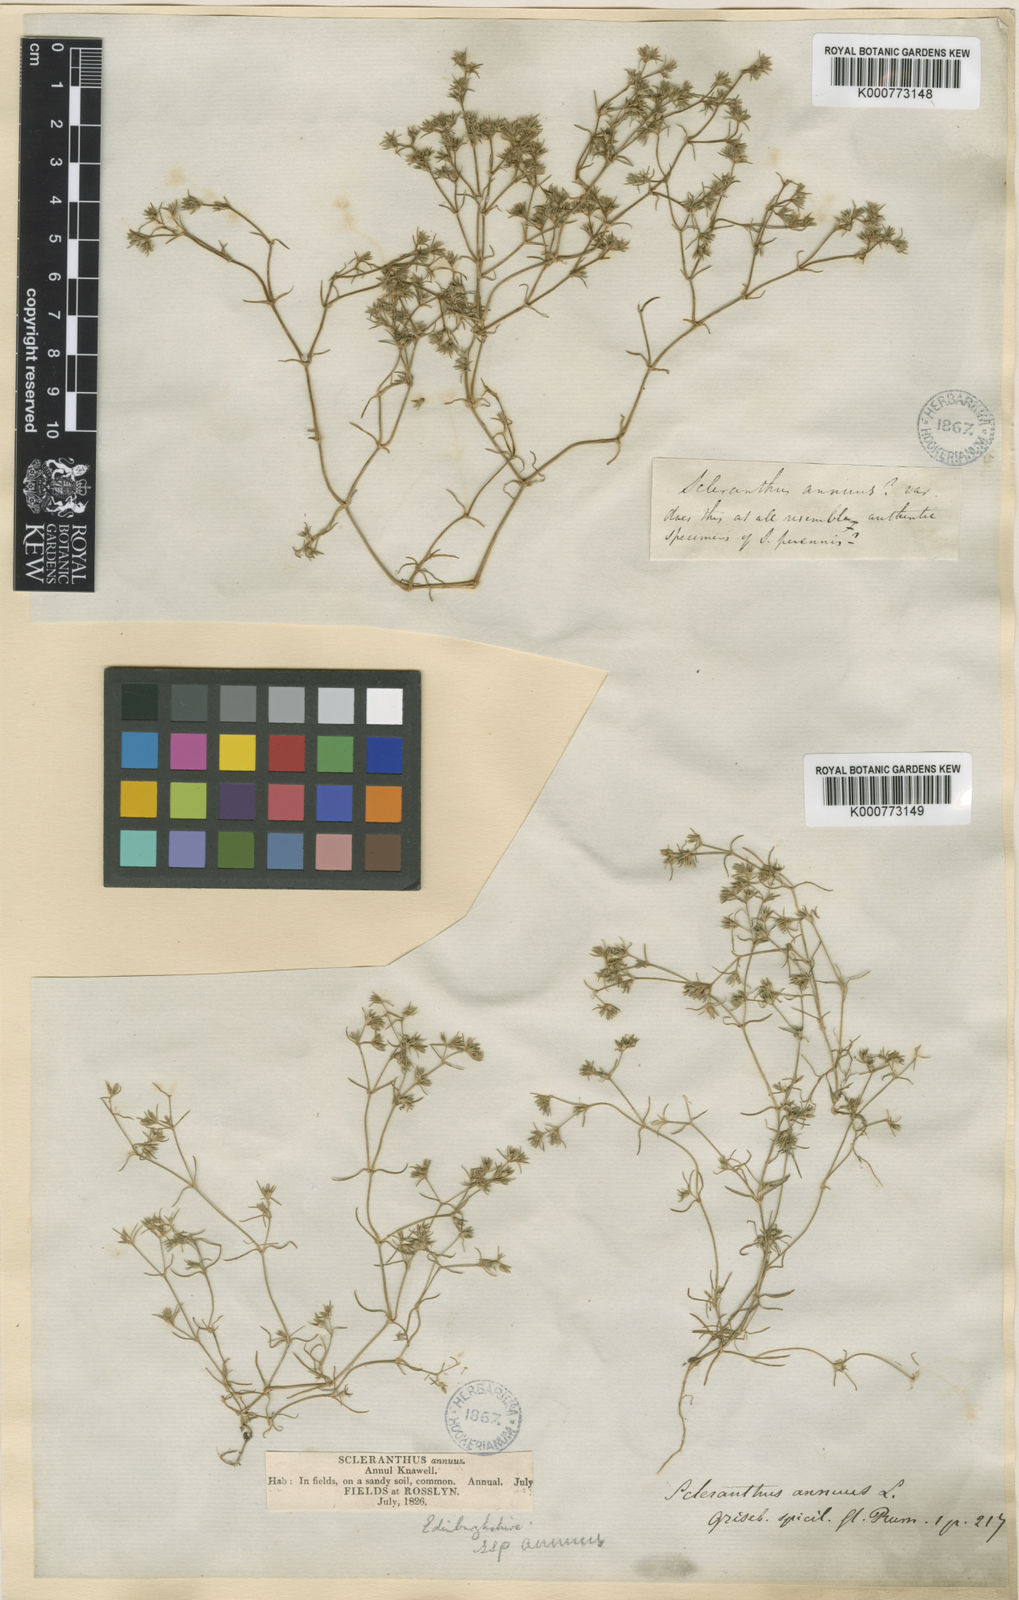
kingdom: Plantae
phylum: Tracheophyta
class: Magnoliopsida
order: Caryophyllales
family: Caryophyllaceae
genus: Scleranthus
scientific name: Scleranthus annuus
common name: Annual knawel
